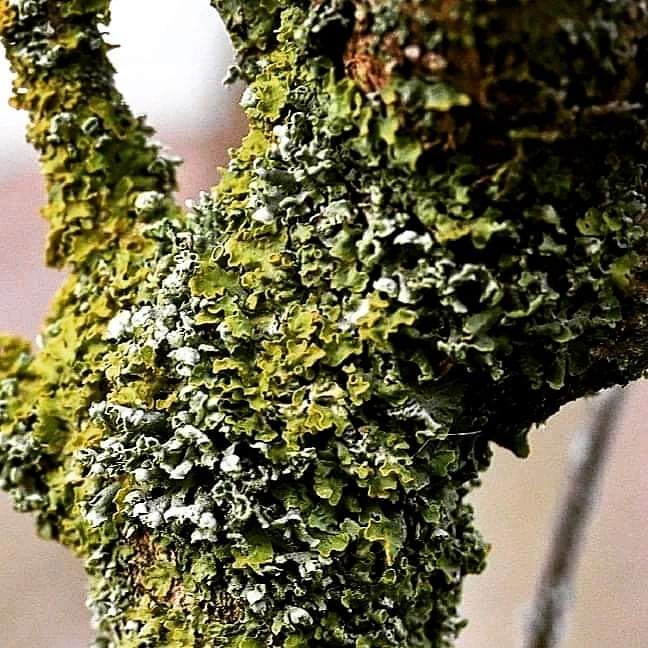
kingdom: Fungi
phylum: Ascomycota
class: Lecanoromycetes
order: Teloschistales
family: Teloschistaceae
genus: Xanthoria
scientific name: Xanthoria parietina
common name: almindelig væggelav
